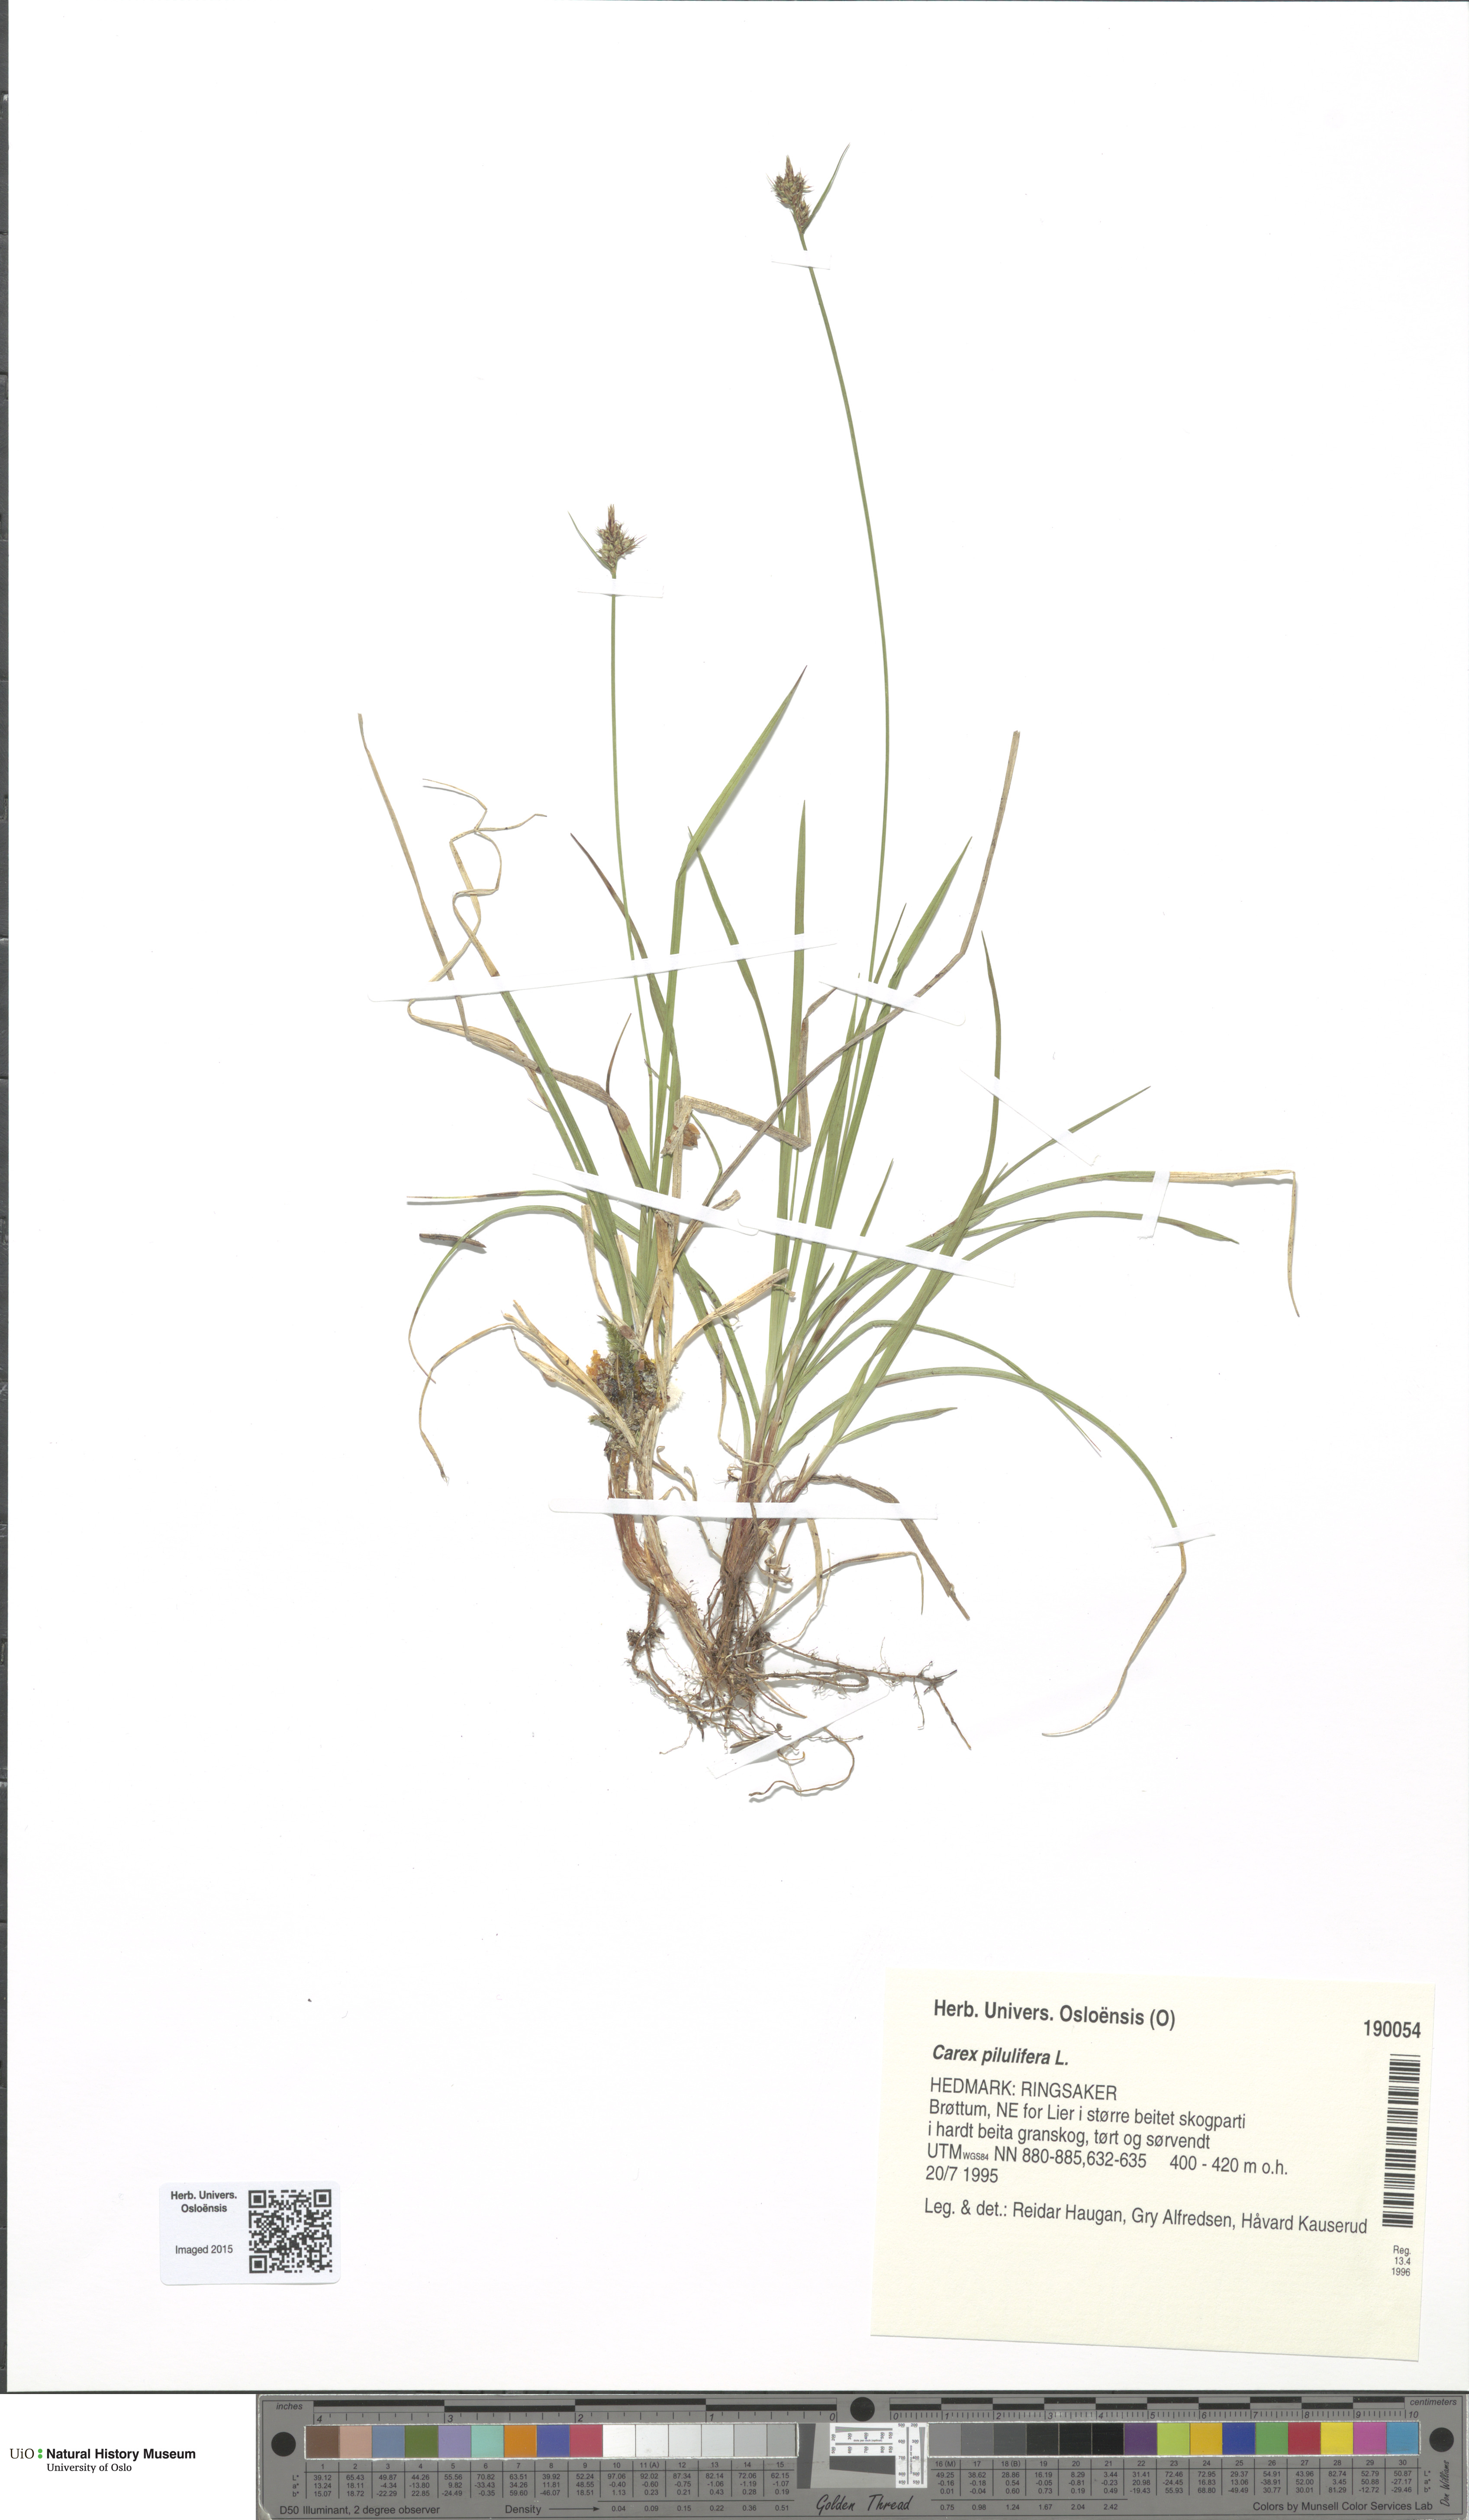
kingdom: Plantae
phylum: Tracheophyta
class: Liliopsida
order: Poales
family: Cyperaceae
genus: Carex
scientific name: Carex pilulifera
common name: Pill sedge
